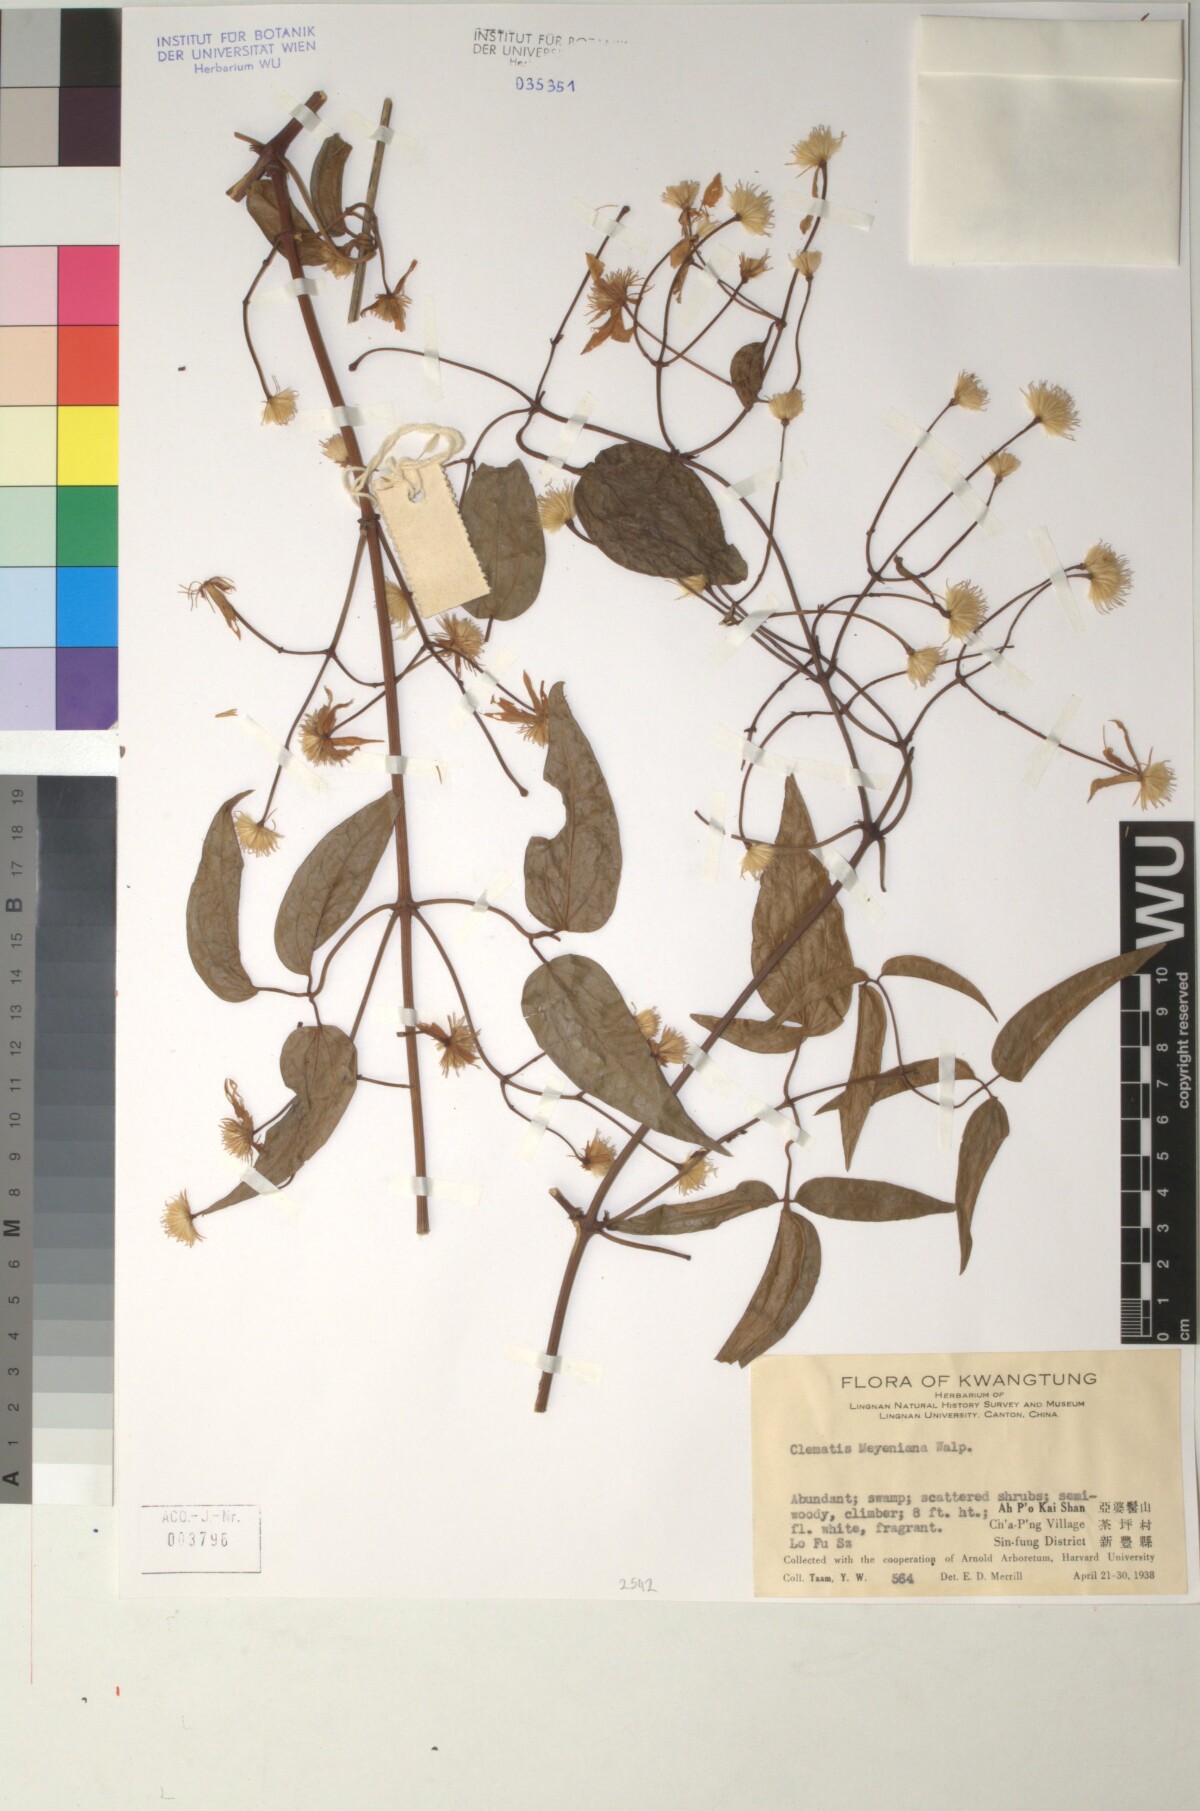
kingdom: Plantae
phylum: Tracheophyta
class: Magnoliopsida
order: Ranunculales
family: Ranunculaceae
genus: Clematis
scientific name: Clematis meyeniana
